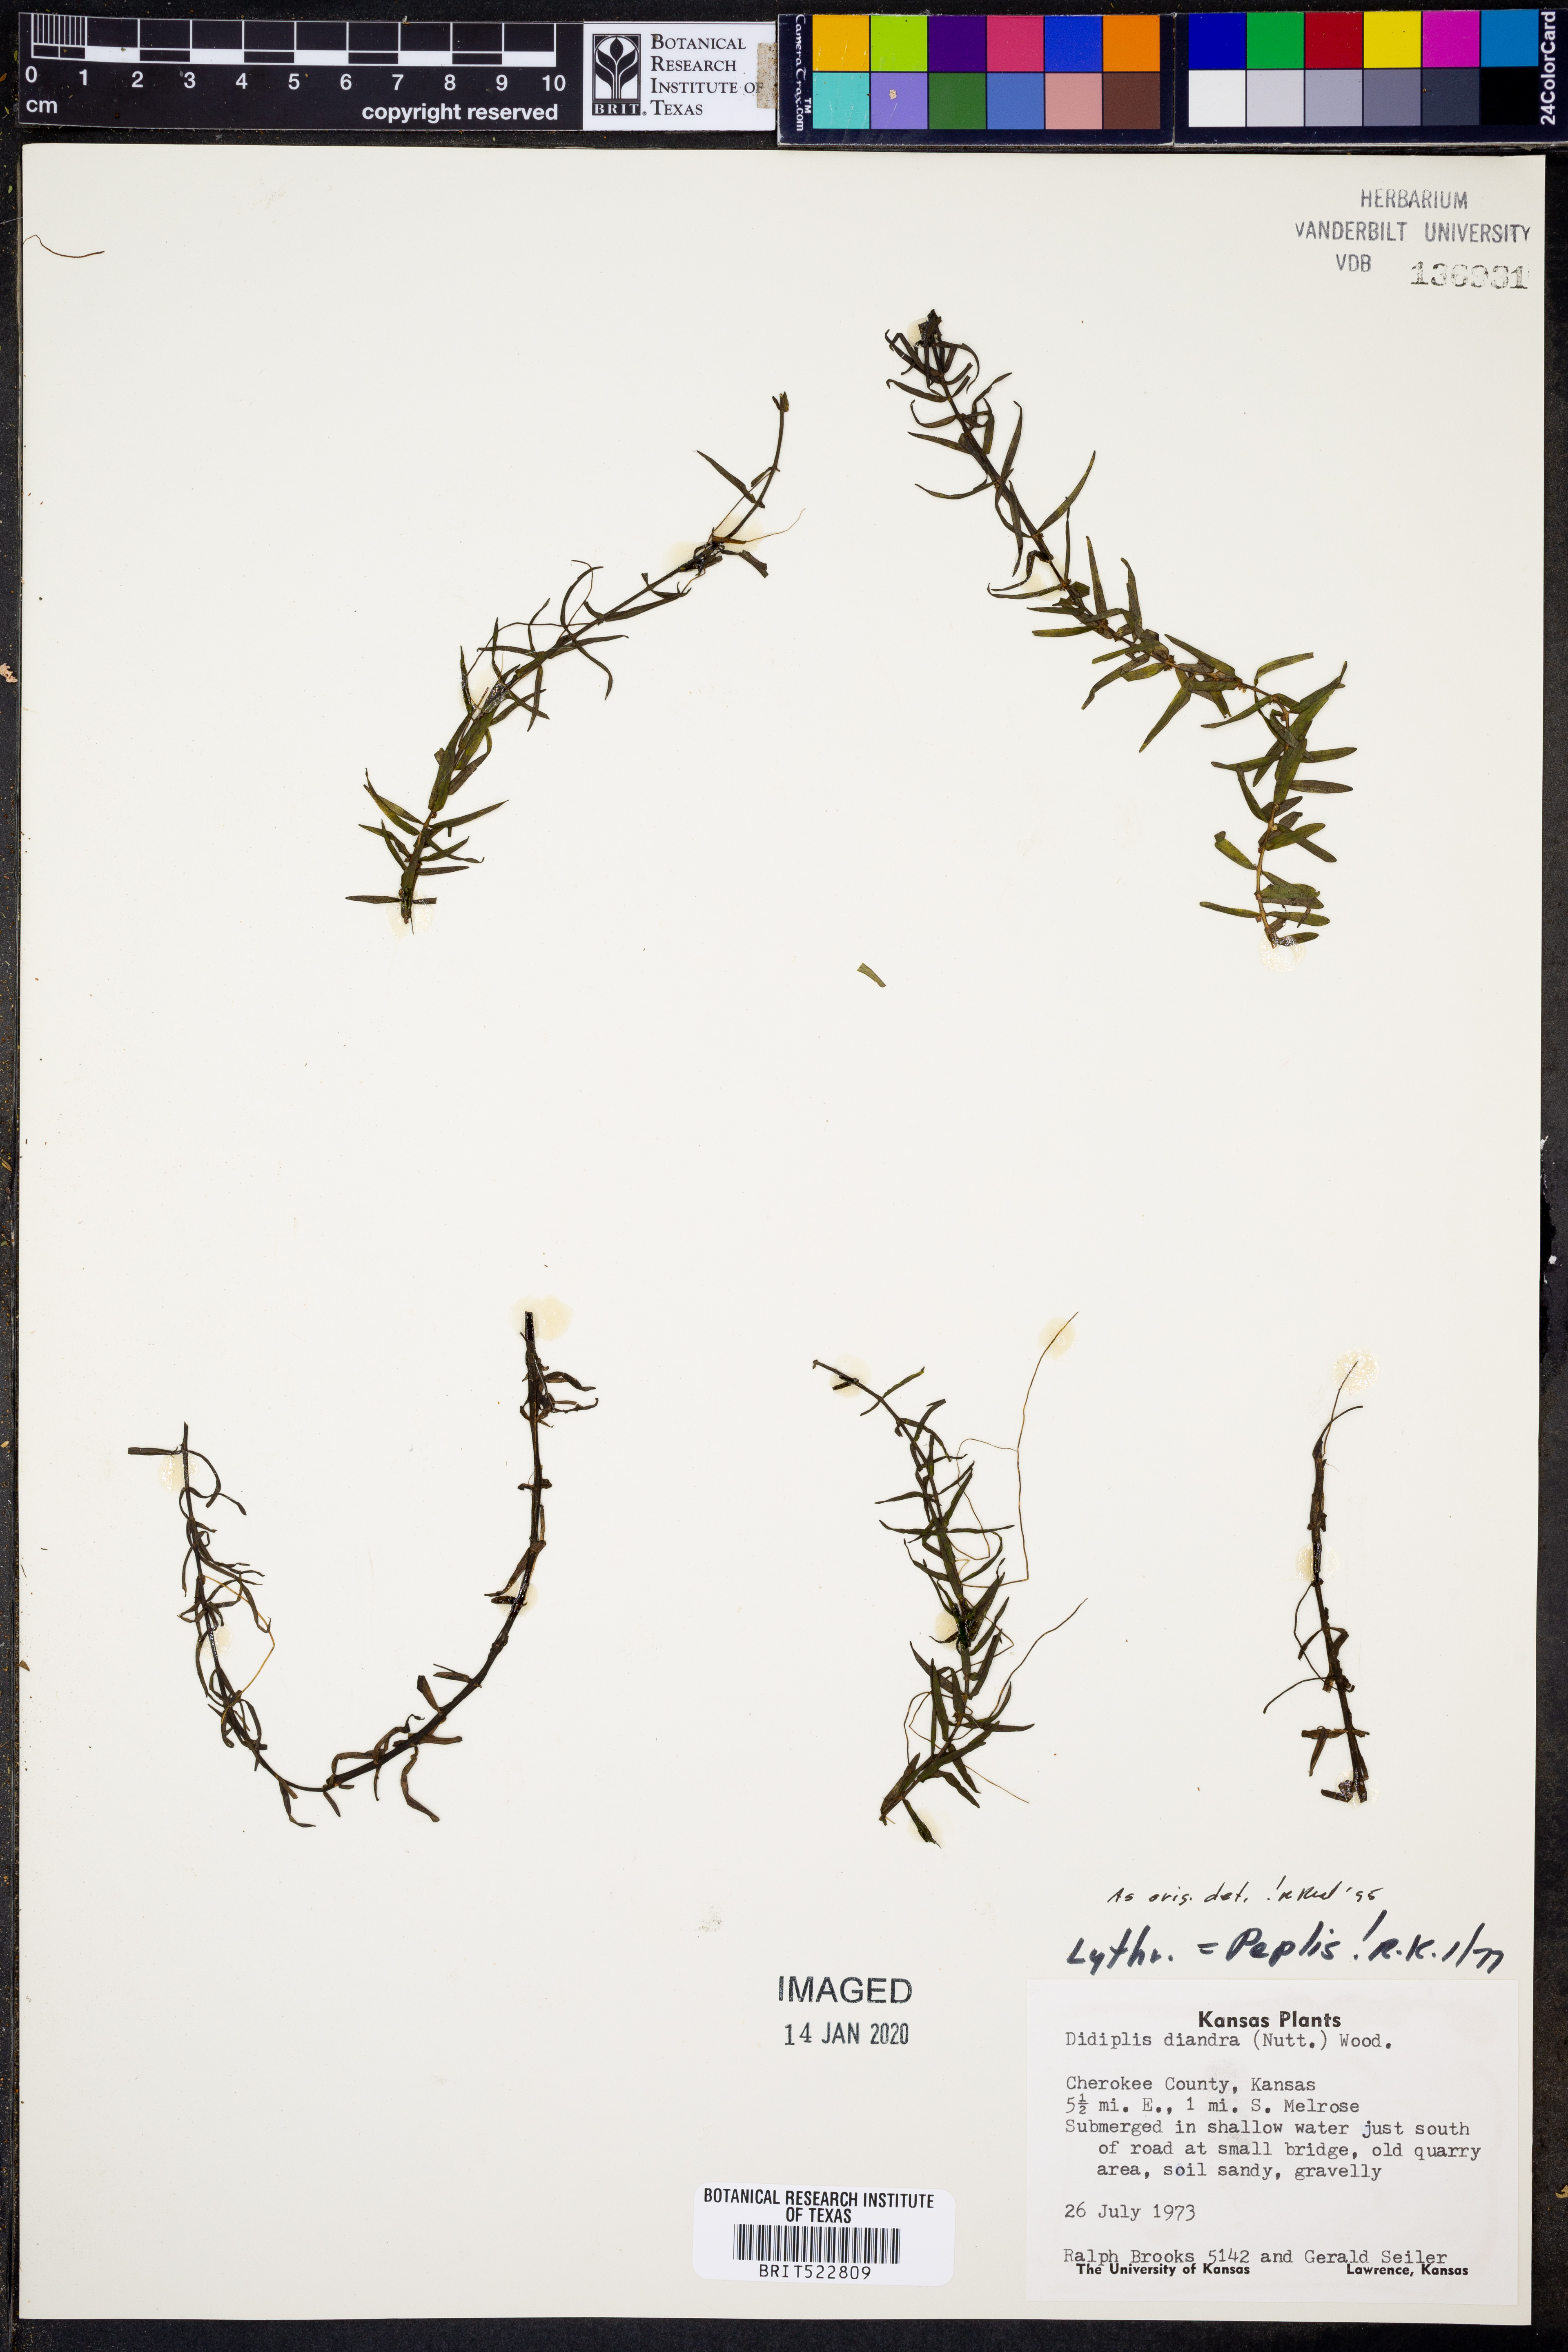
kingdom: Plantae
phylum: Tracheophyta
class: Magnoliopsida
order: Myrtales
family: Lythraceae
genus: Didiplis
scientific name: Didiplis diandra
